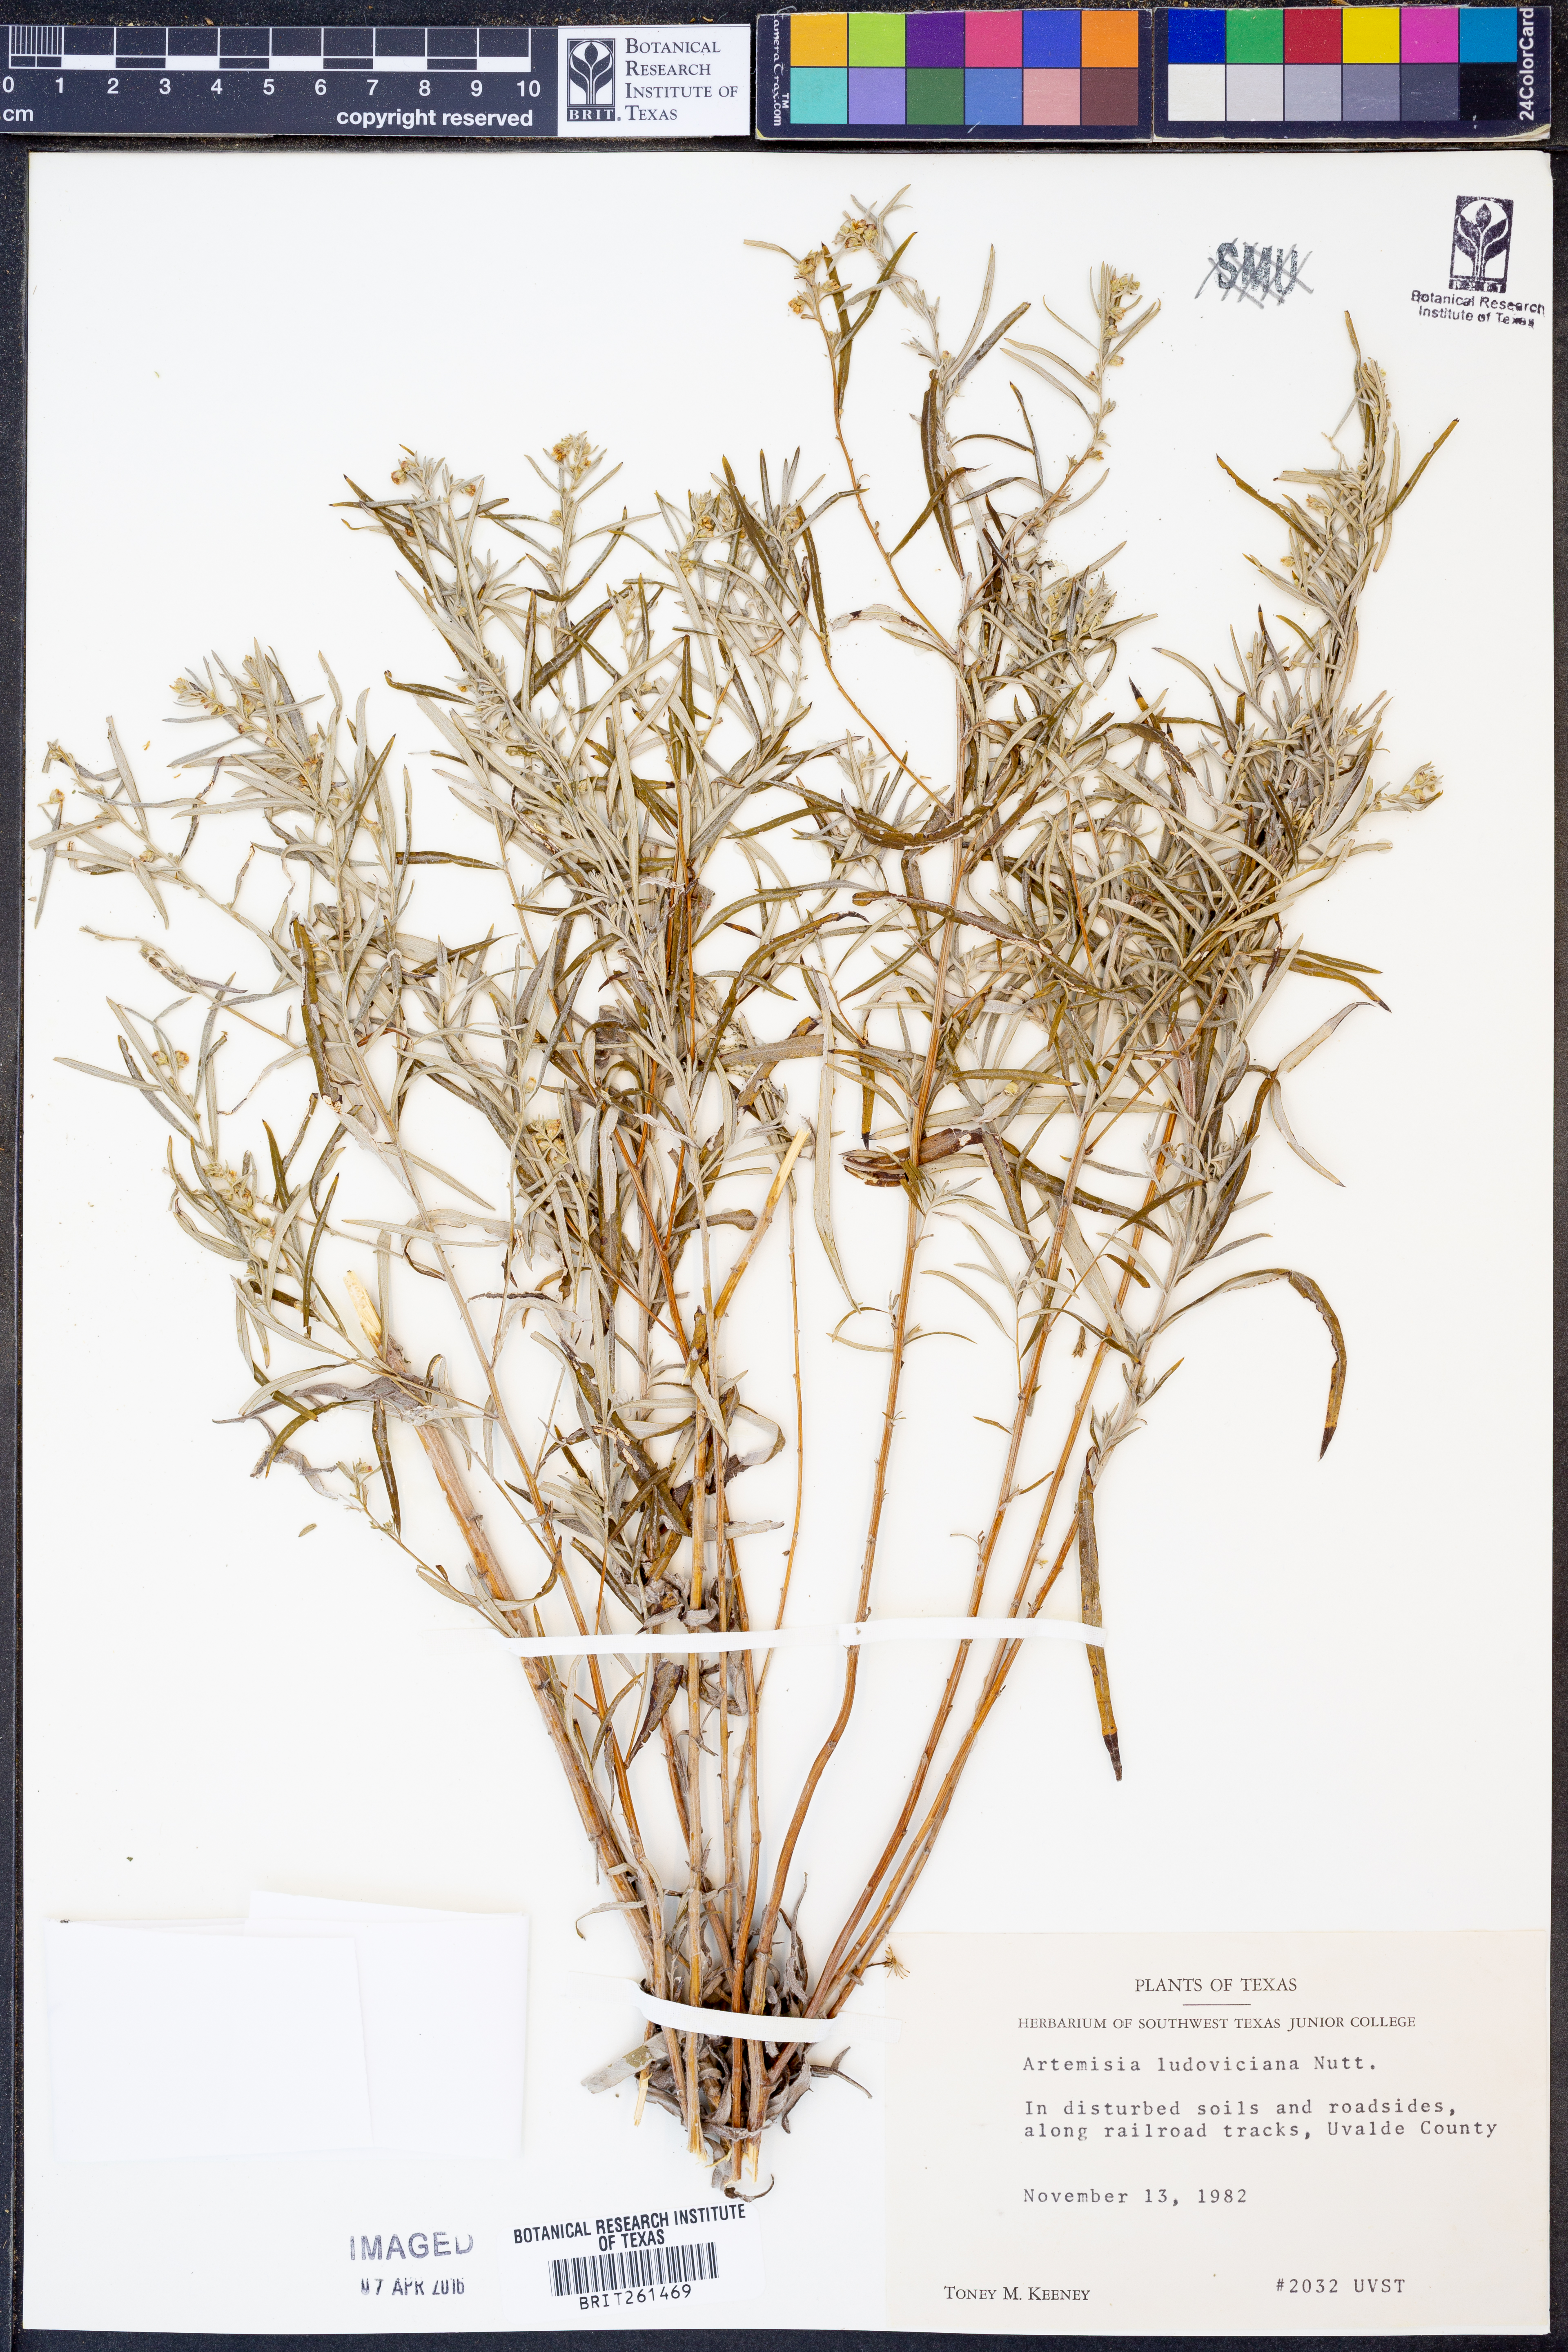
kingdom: Plantae
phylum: Tracheophyta
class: Magnoliopsida
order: Asterales
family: Asteraceae
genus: Artemisia
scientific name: Artemisia ludoviciana
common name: Western mugwort
